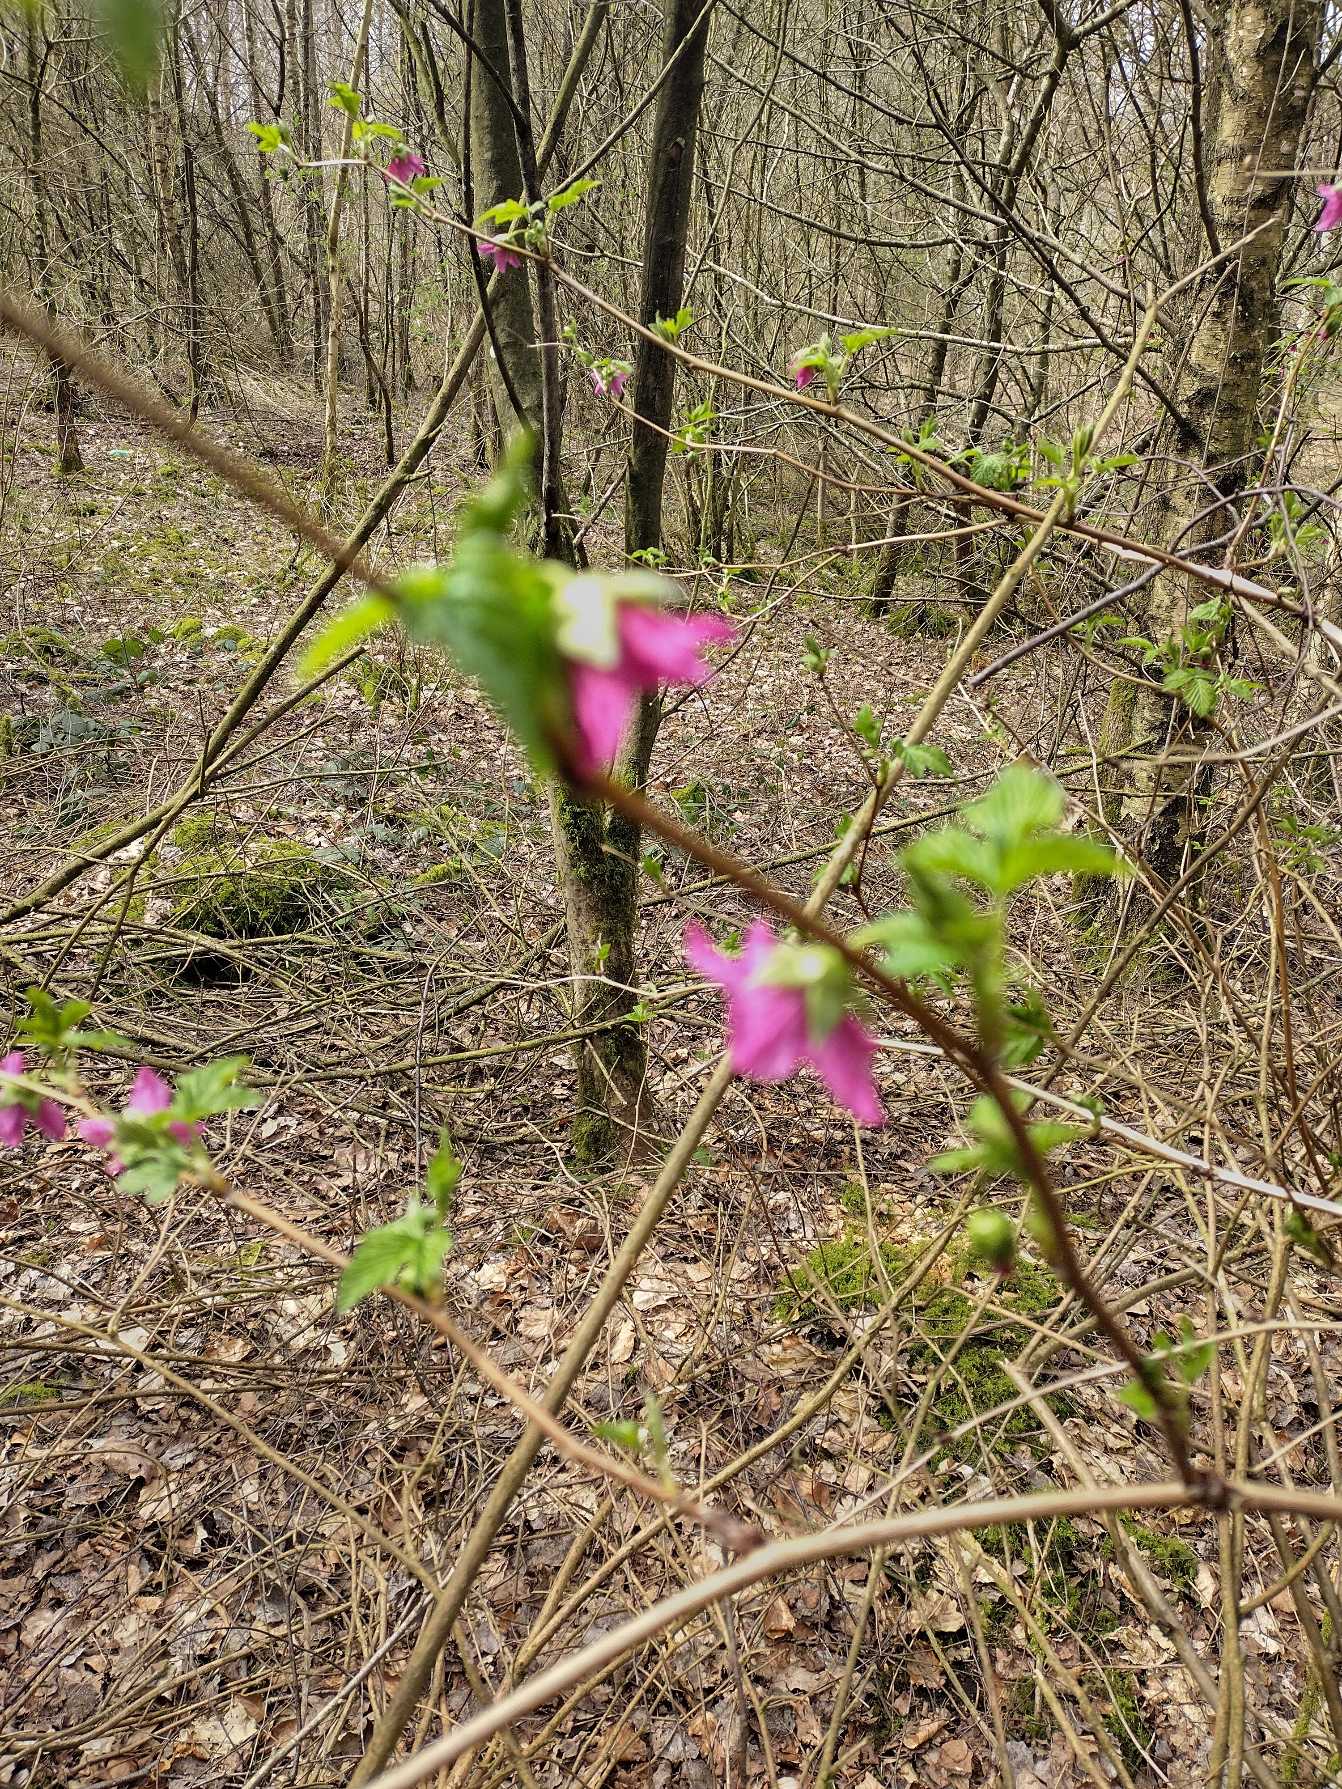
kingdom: Plantae
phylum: Tracheophyta
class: Magnoliopsida
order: Rosales
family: Rosaceae
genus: Rubus
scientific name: Rubus spectabilis
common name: Laksebær
